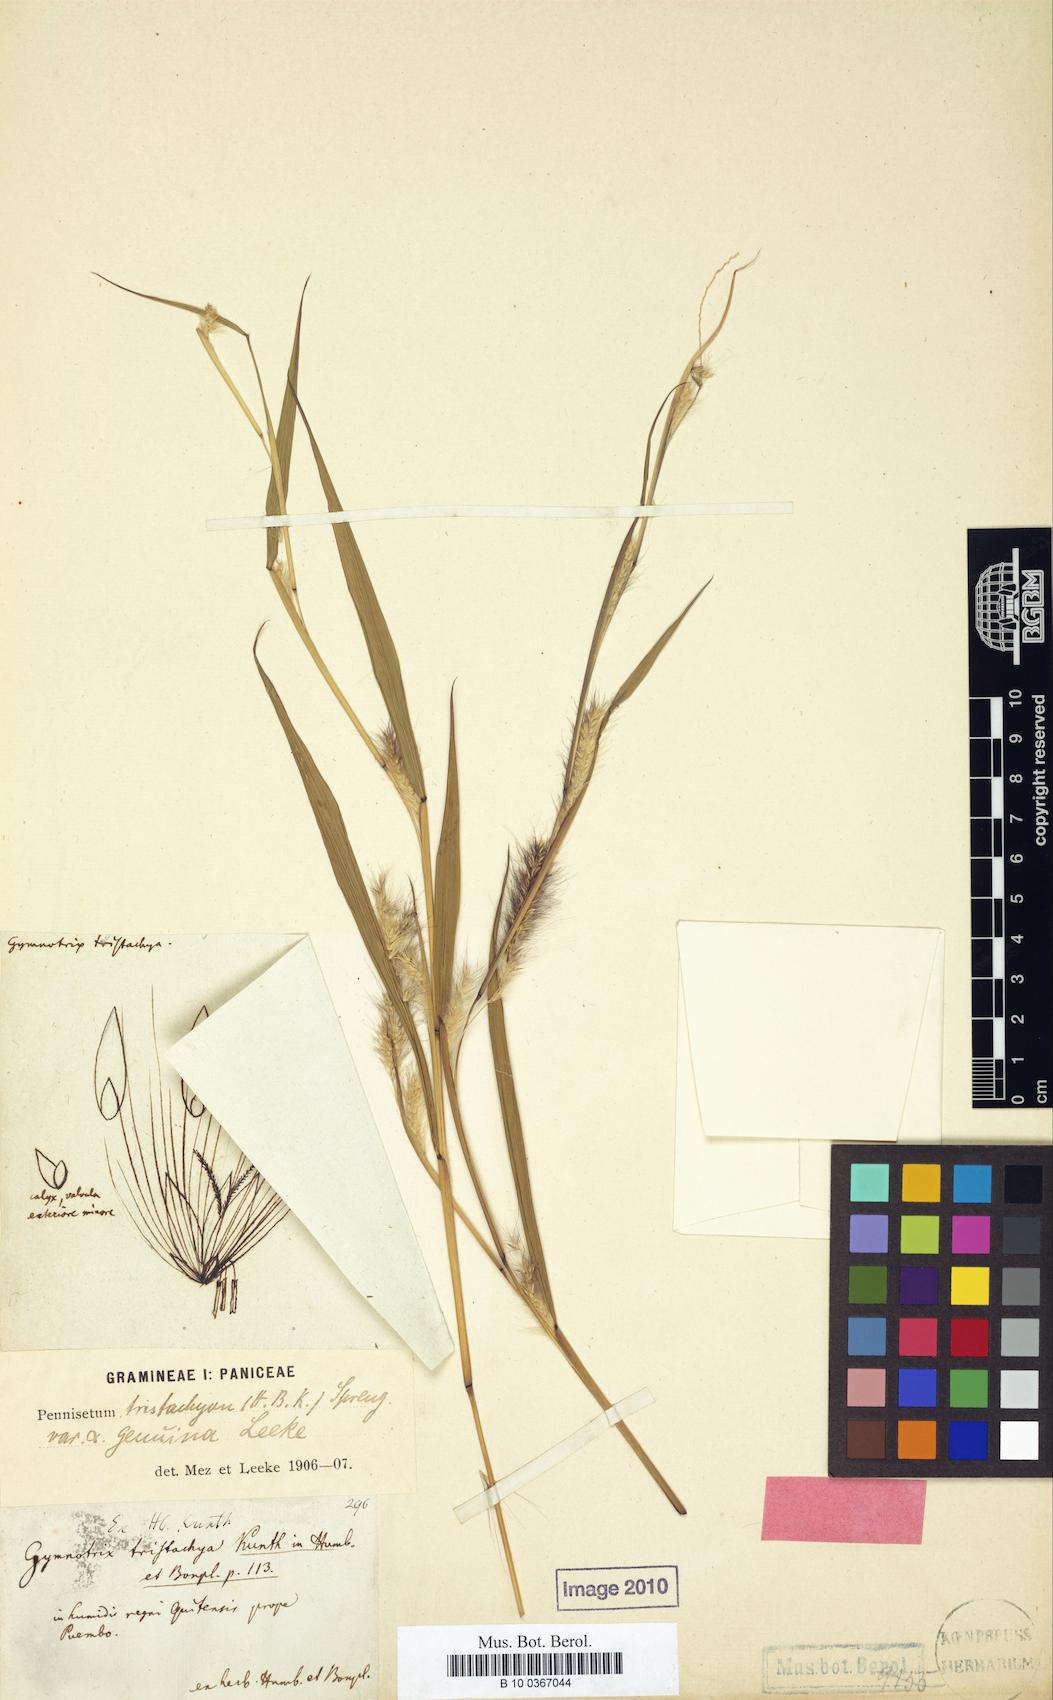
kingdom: Plantae
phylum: Tracheophyta
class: Liliopsida
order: Poales
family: Poaceae
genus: Cenchrus
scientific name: Cenchrus tristachyus
